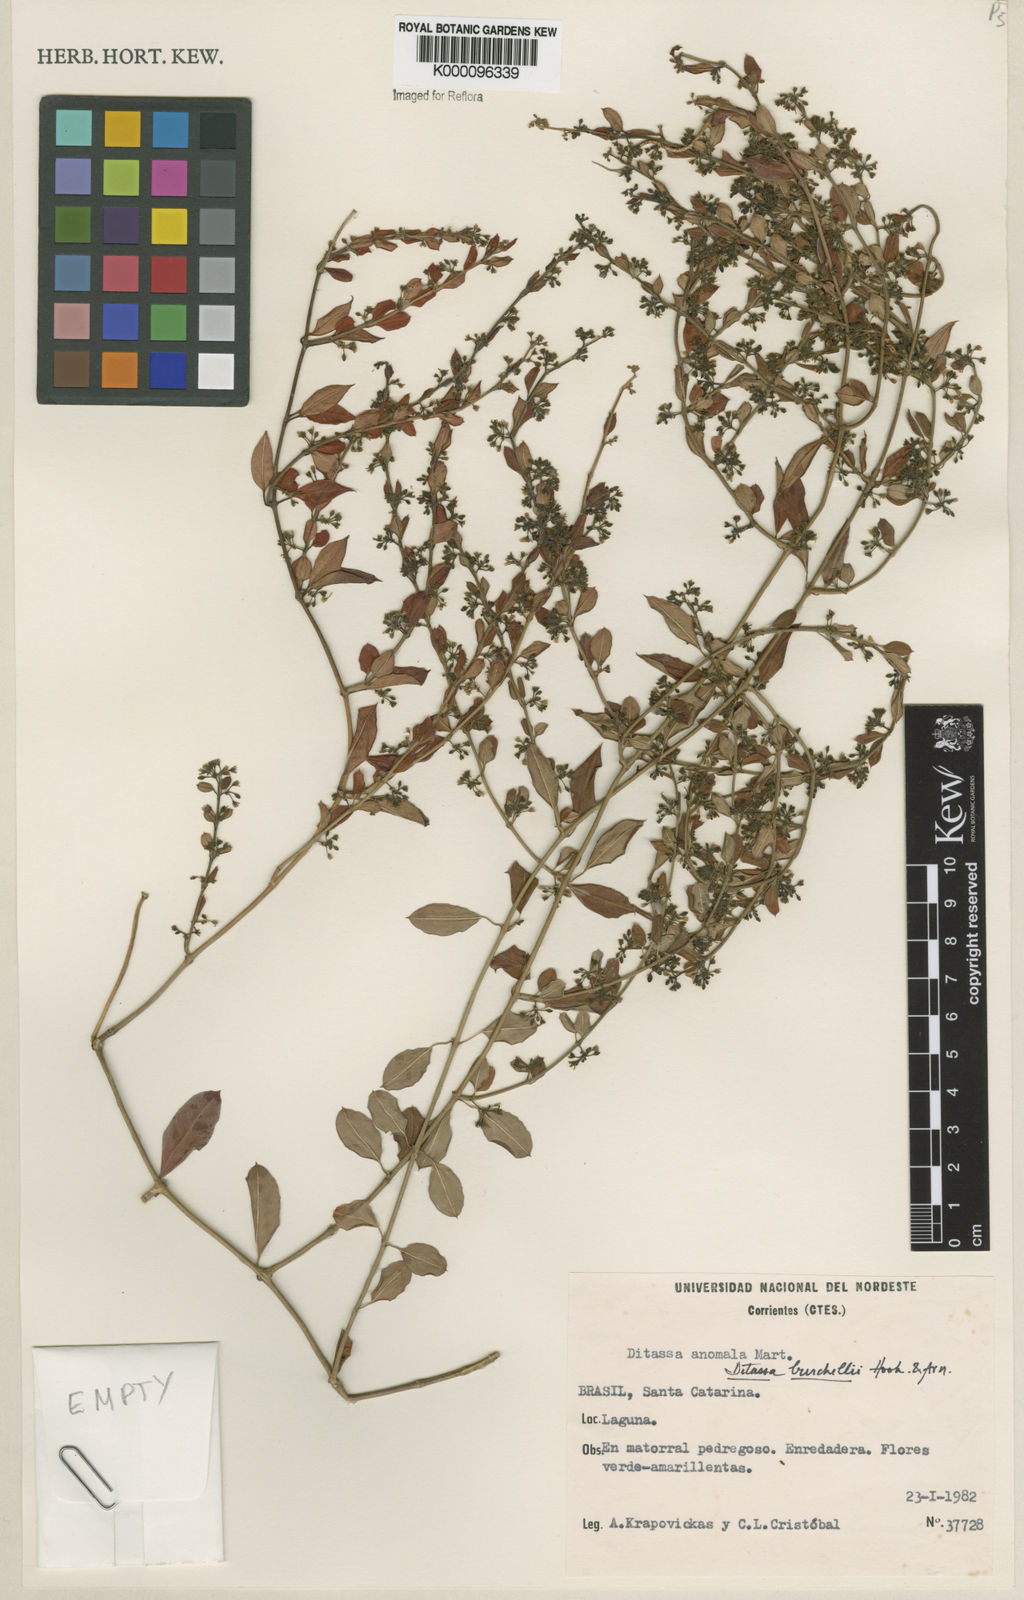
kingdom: Plantae
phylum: Tracheophyta
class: Magnoliopsida
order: Gentianales
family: Apocynaceae
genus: Metastelma
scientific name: Metastelma burchellii
